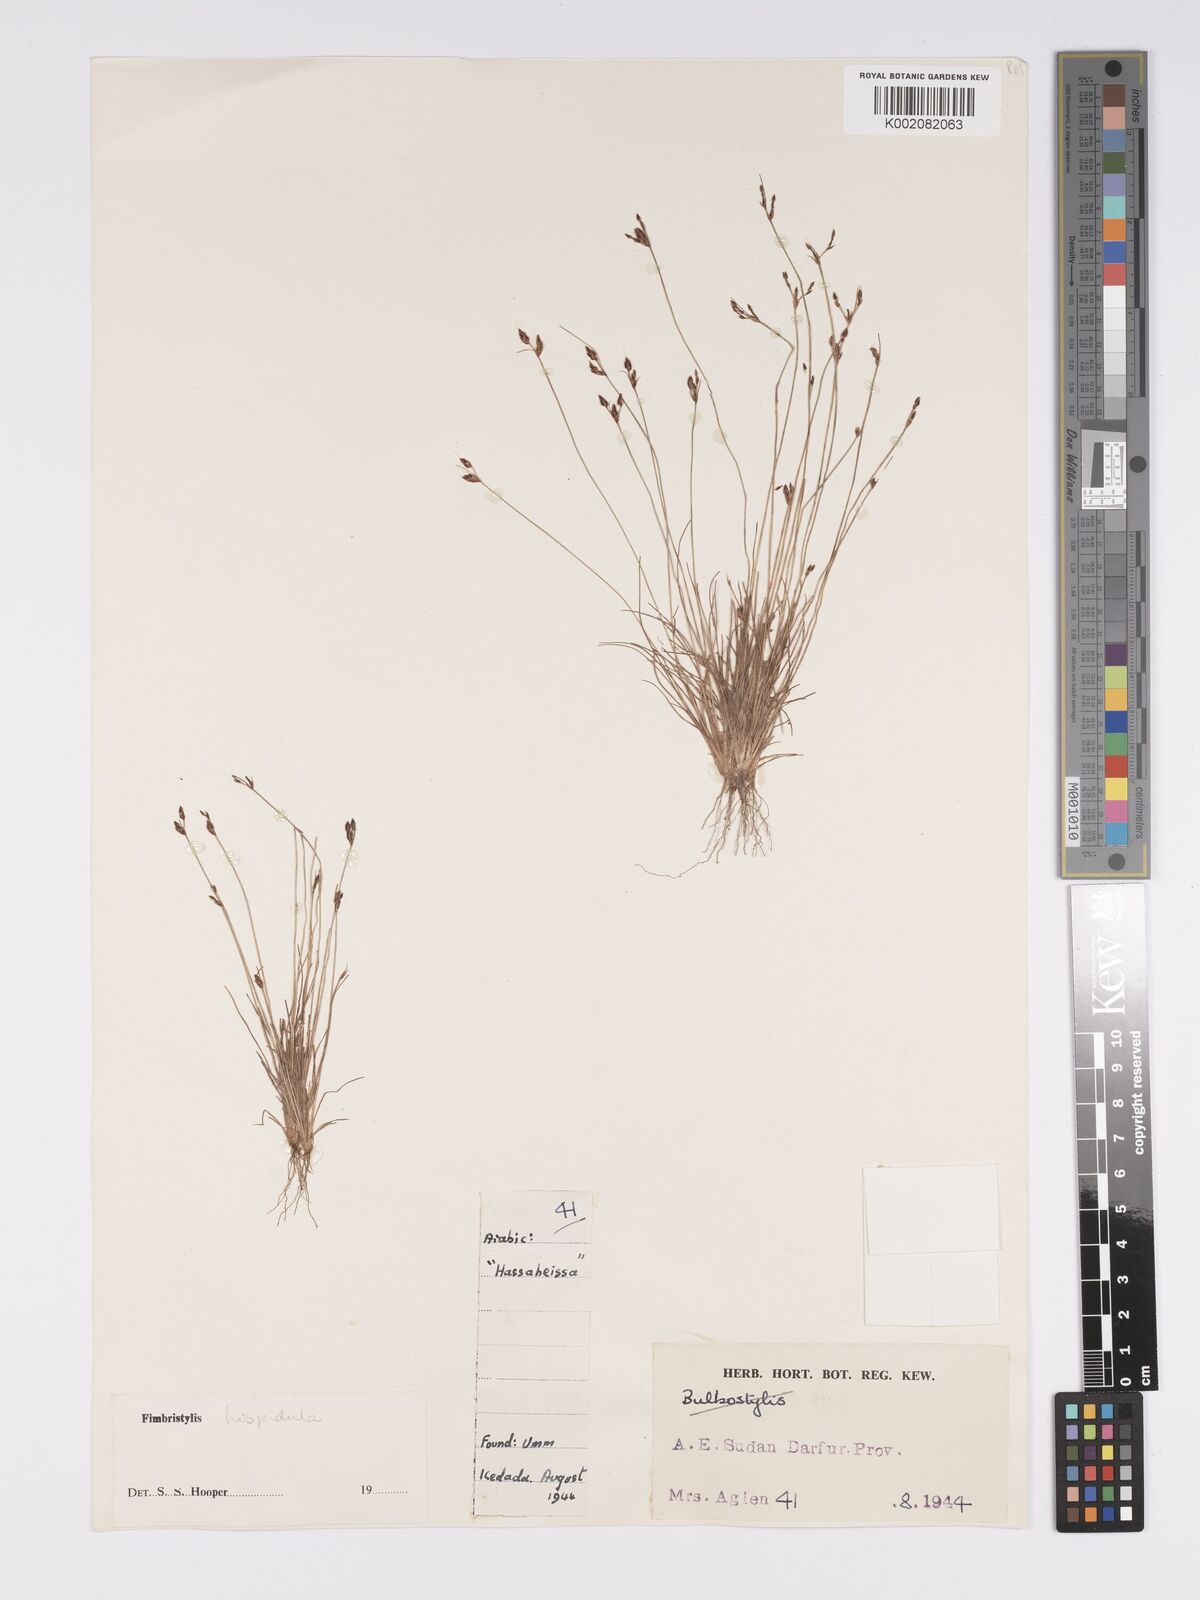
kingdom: Plantae
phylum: Tracheophyta
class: Liliopsida
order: Poales
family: Cyperaceae
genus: Bulbostylis
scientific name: Bulbostylis hispidula
